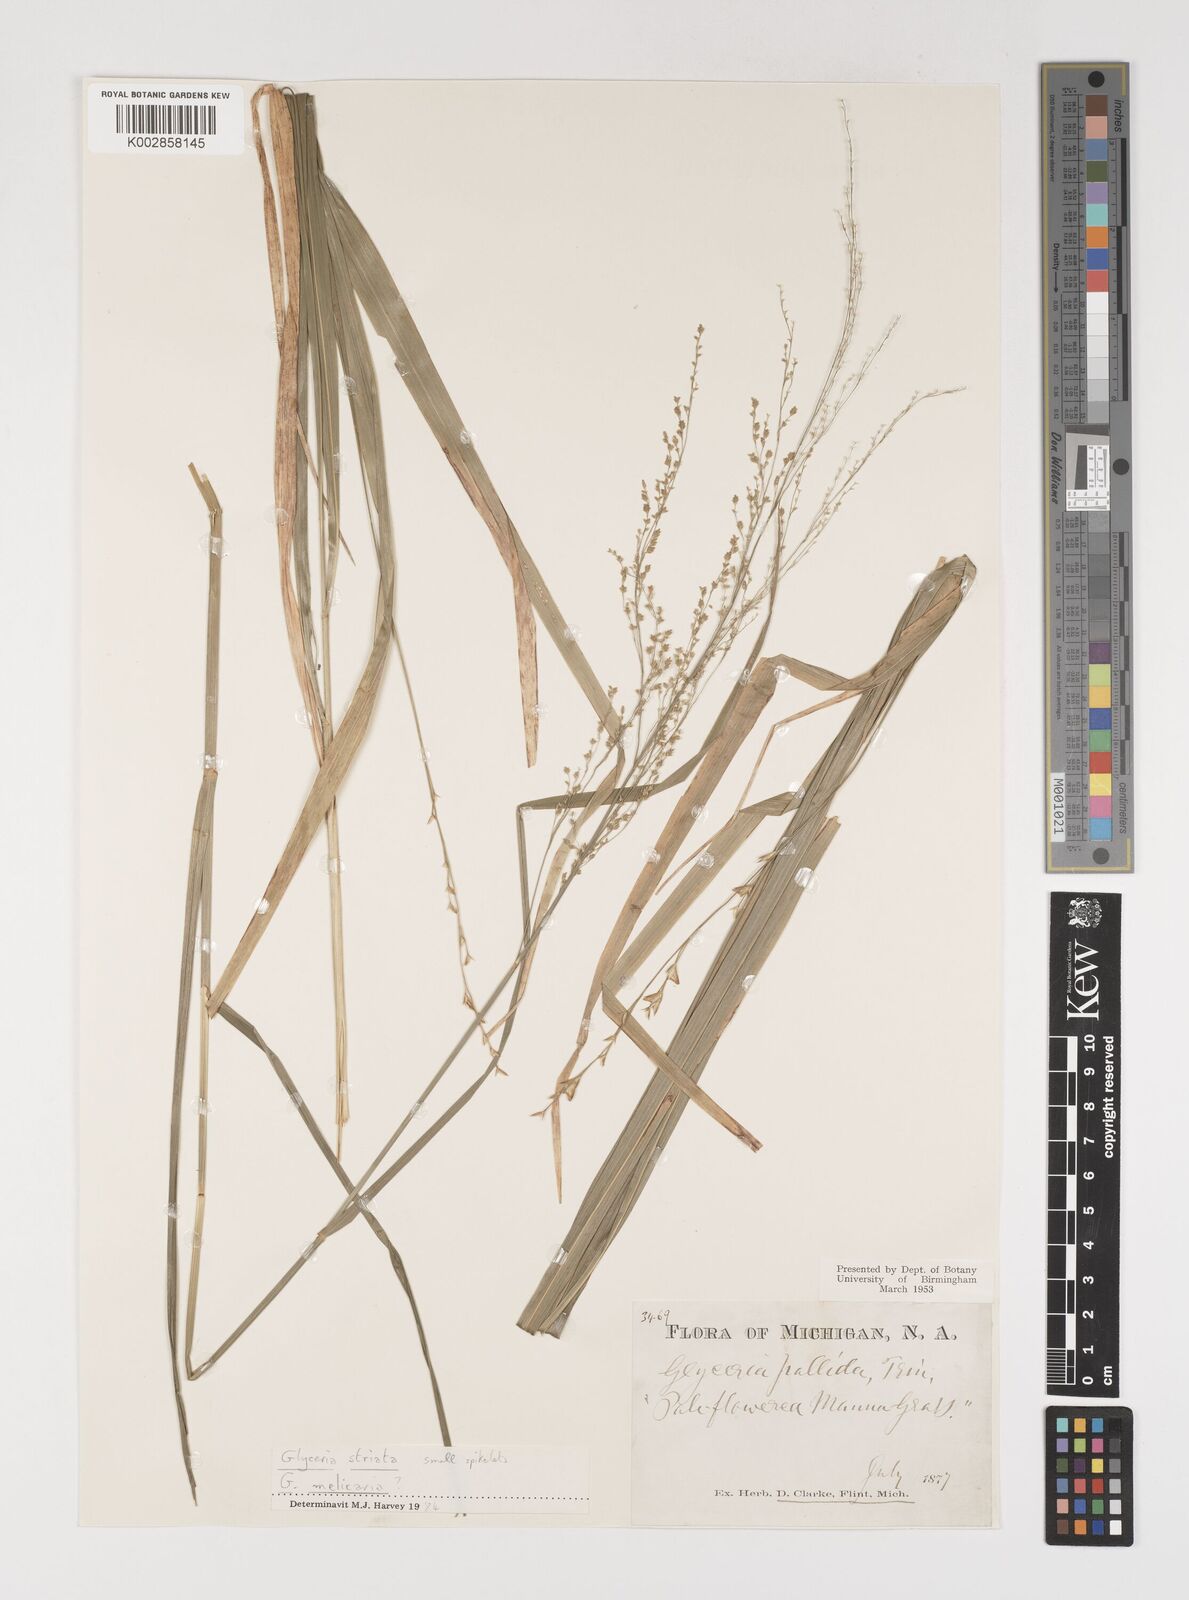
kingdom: Plantae
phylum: Tracheophyta
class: Liliopsida
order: Poales
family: Poaceae
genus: Torreyochloa
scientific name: Torreyochloa pallida
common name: Pale false mannagrass
